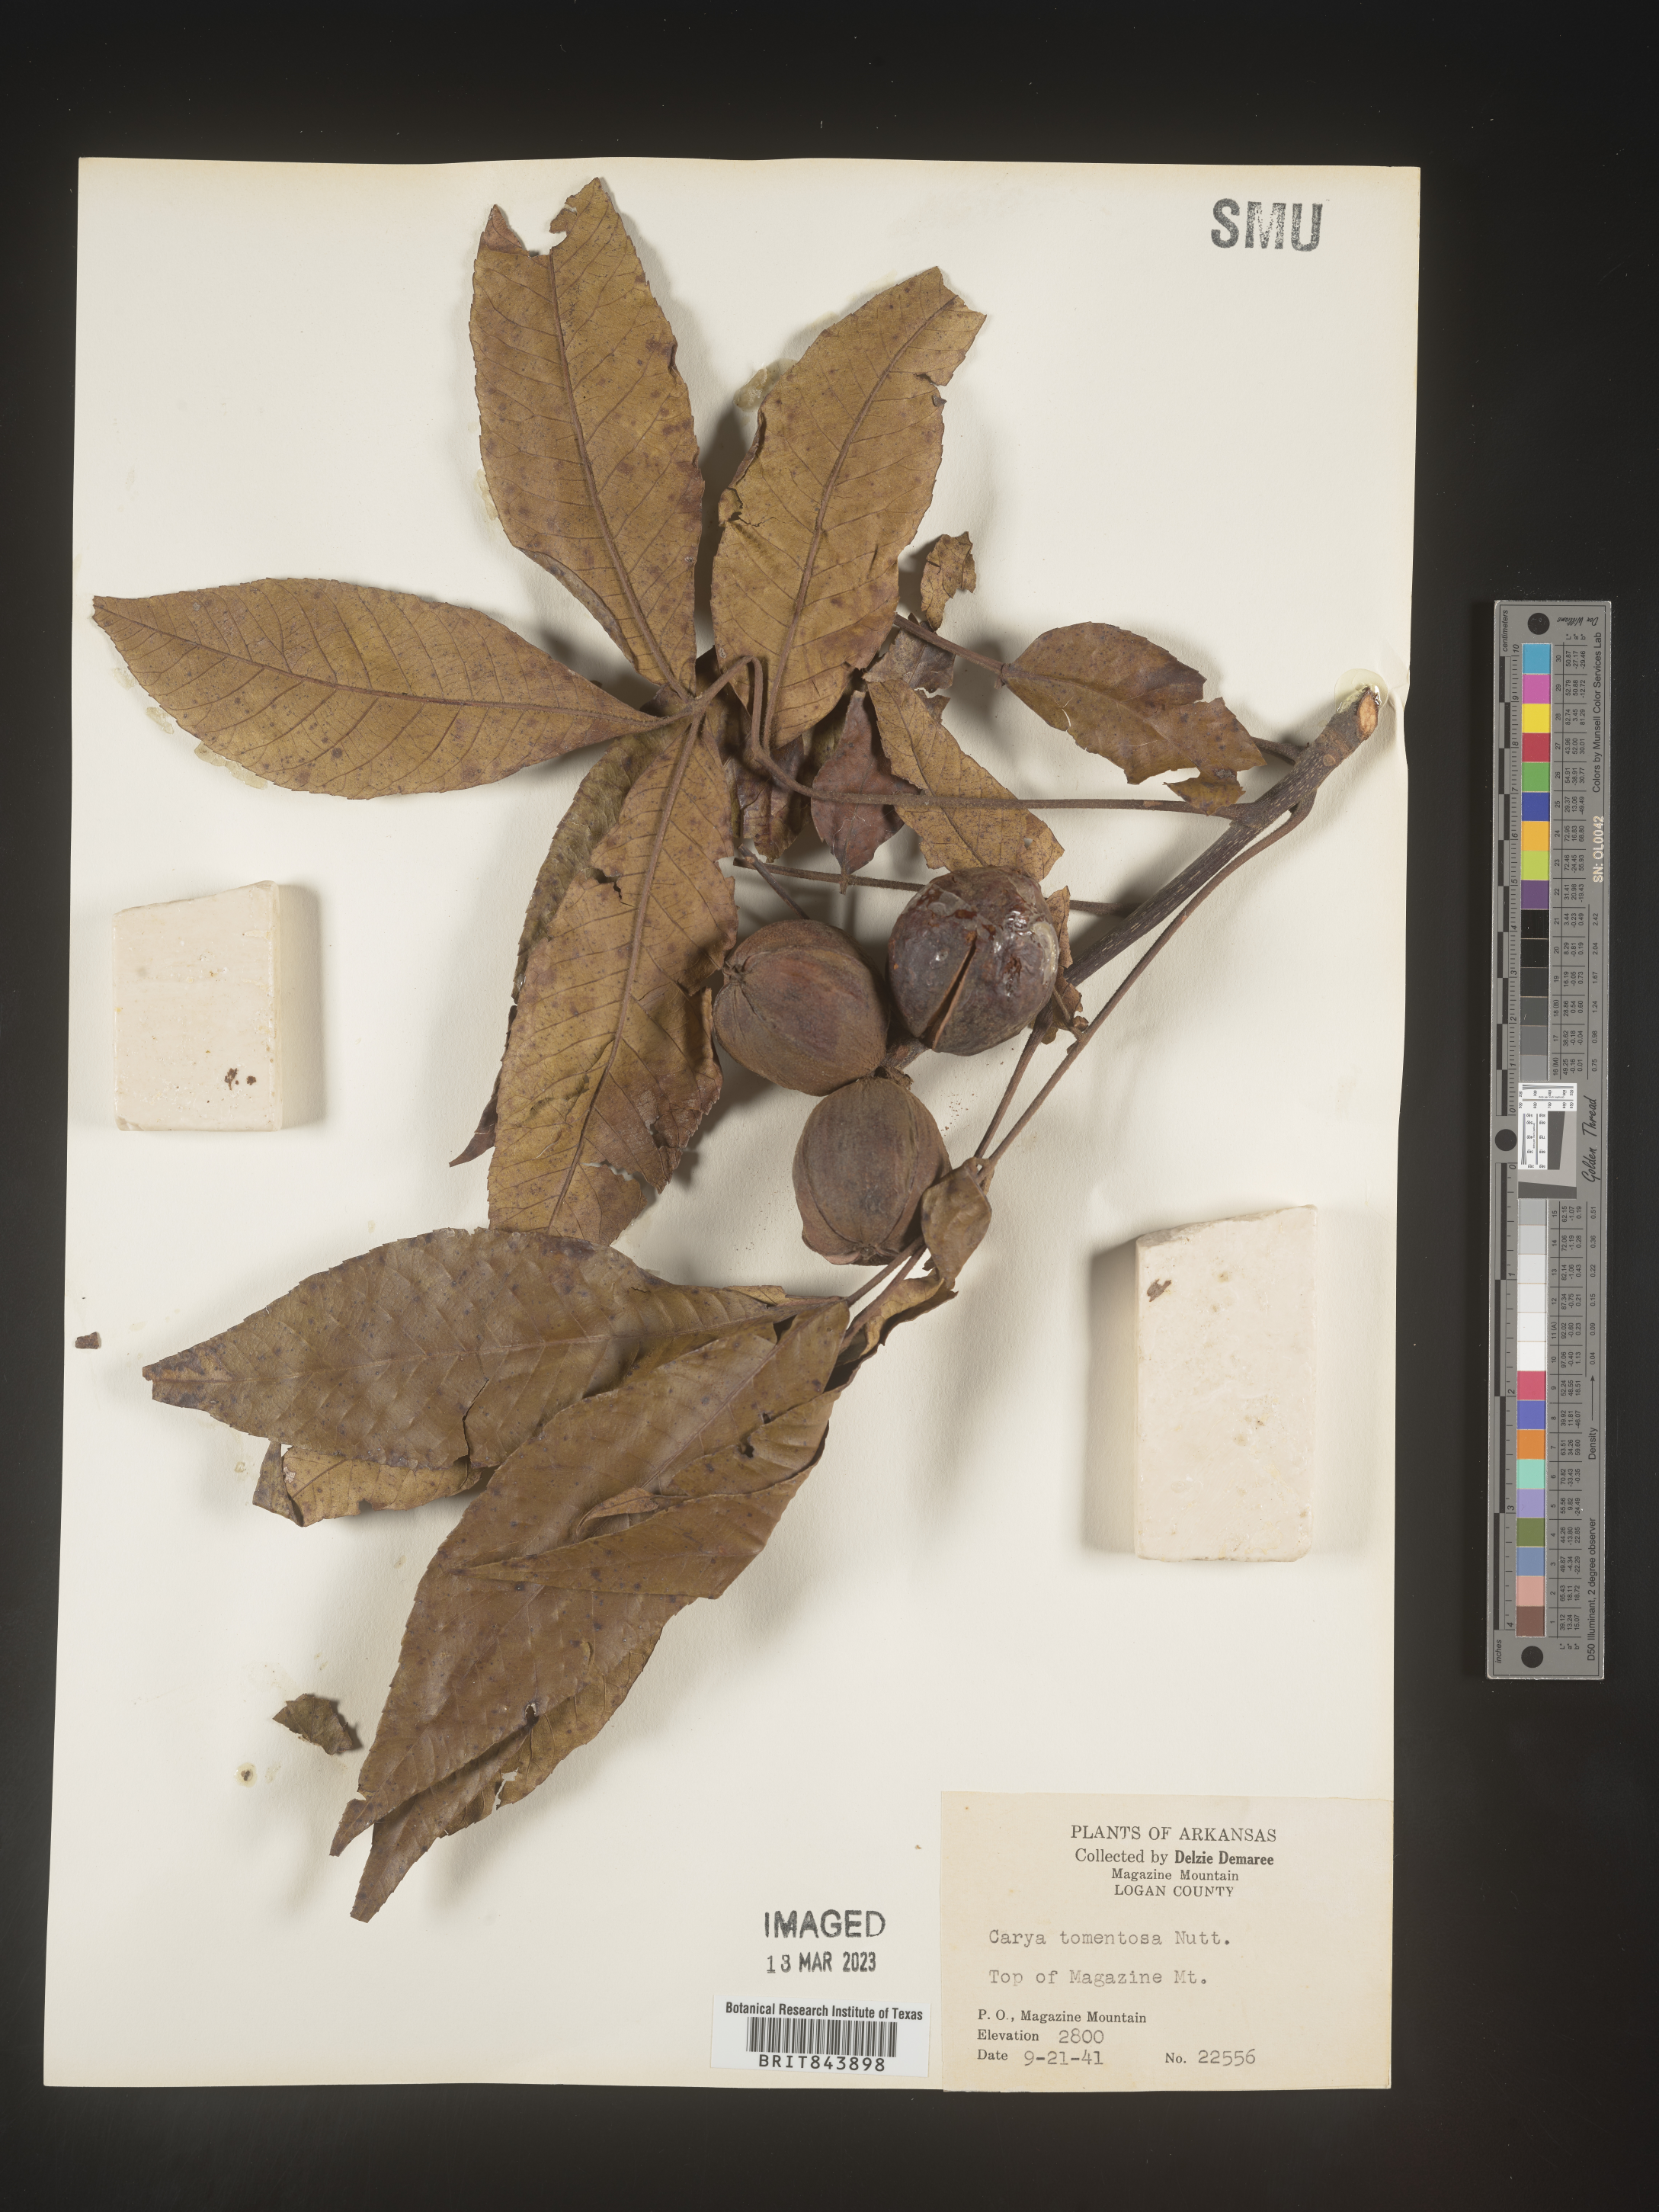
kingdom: Plantae
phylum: Tracheophyta
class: Magnoliopsida
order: Fagales
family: Juglandaceae
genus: Carya
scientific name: Carya alba
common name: Mockernut hickory
